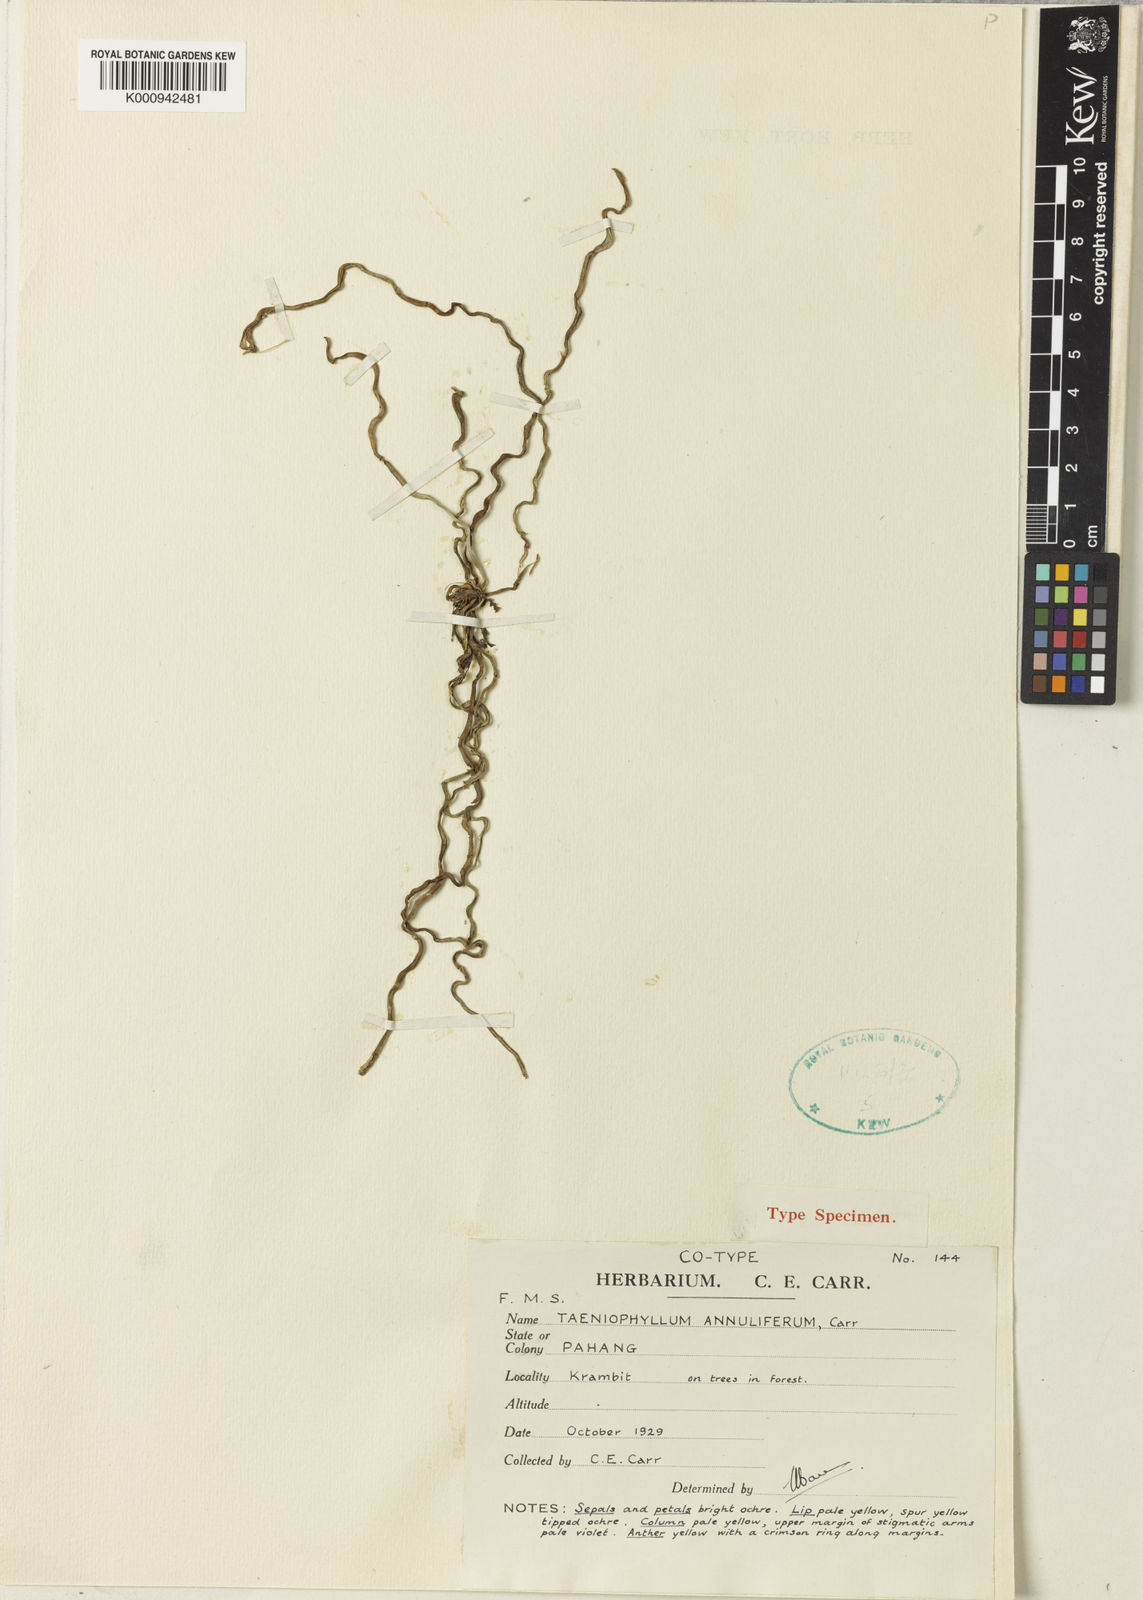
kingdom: Plantae
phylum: Tracheophyta
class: Liliopsida
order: Asparagales
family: Orchidaceae
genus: Taeniophyllum
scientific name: Taeniophyllum annuliferum
